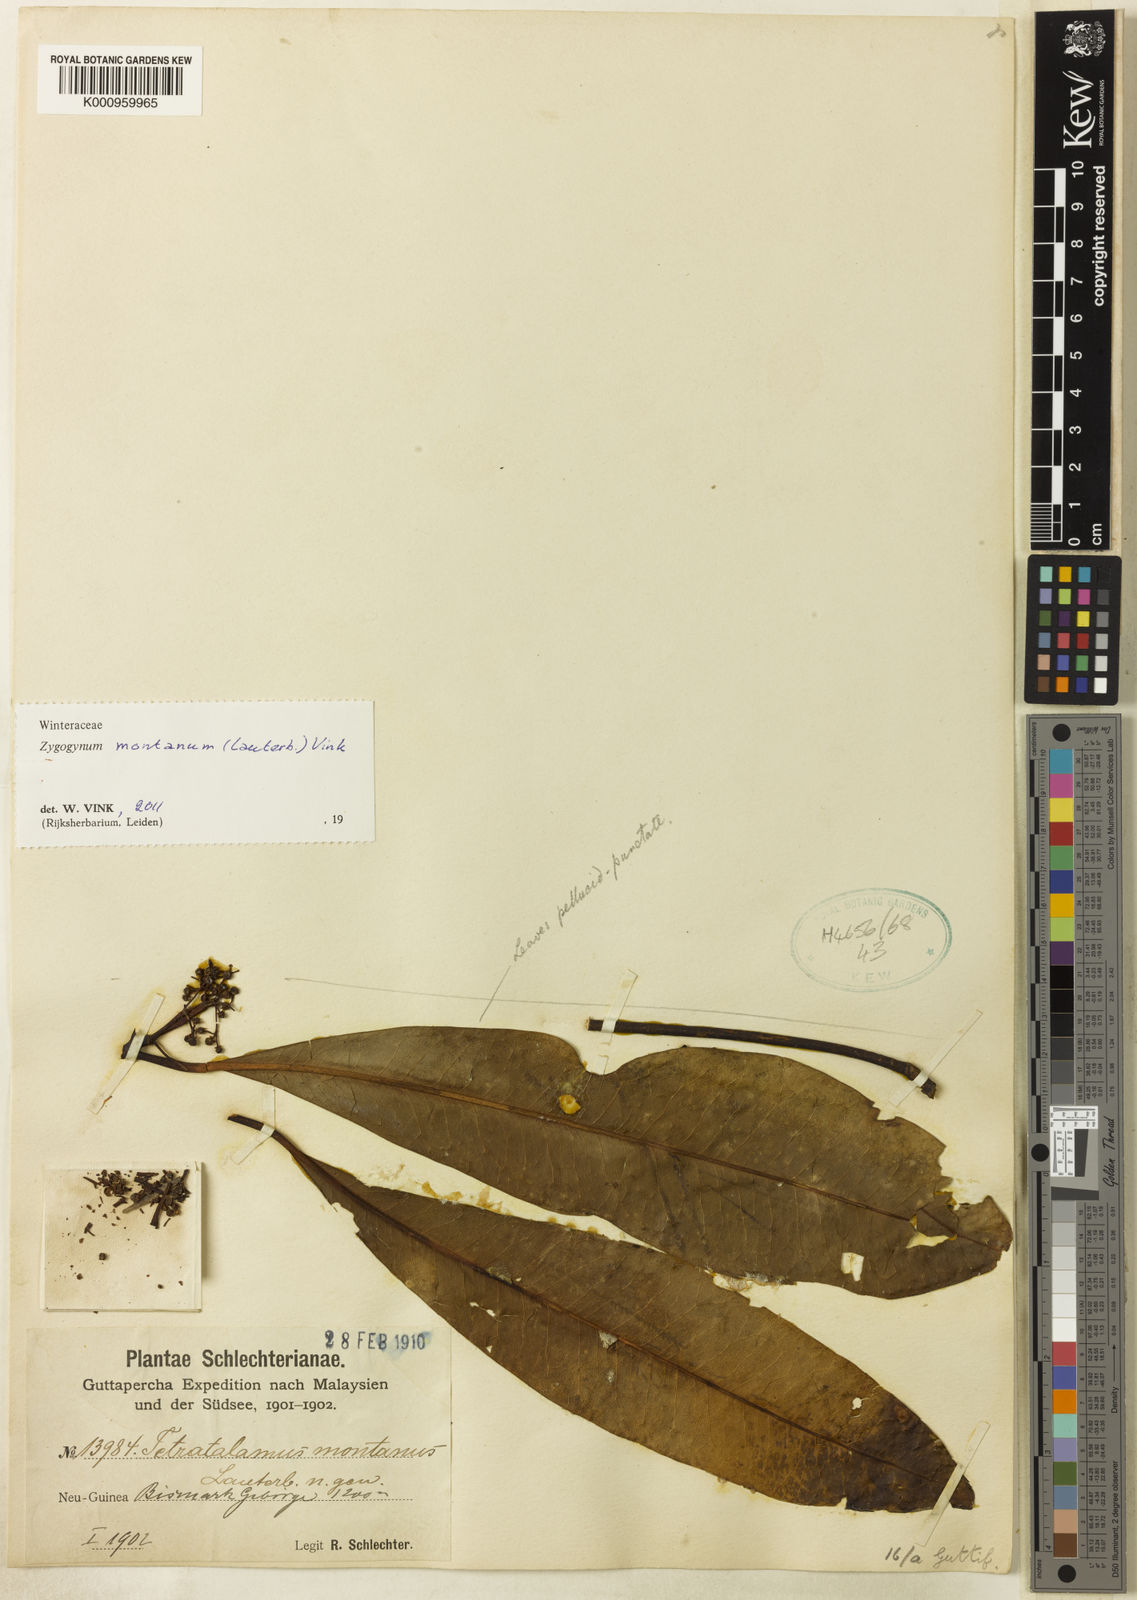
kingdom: Plantae
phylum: Tracheophyta
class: Magnoliopsida
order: Canellales
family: Winteraceae
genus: Zygogynum
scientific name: Zygogynum montanum
